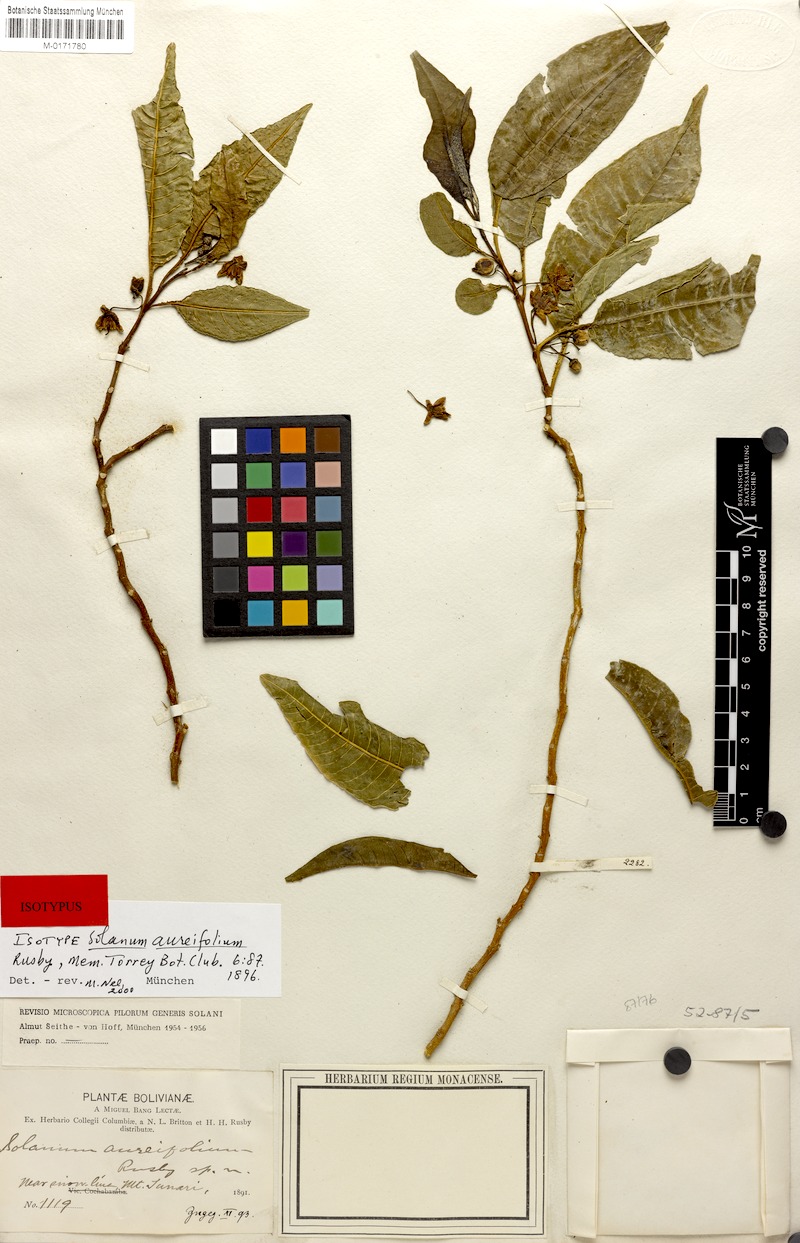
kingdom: Plantae
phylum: Tracheophyta
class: Magnoliopsida
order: Solanales
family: Solanaceae
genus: Solanum
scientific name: Solanum maturecalvans
